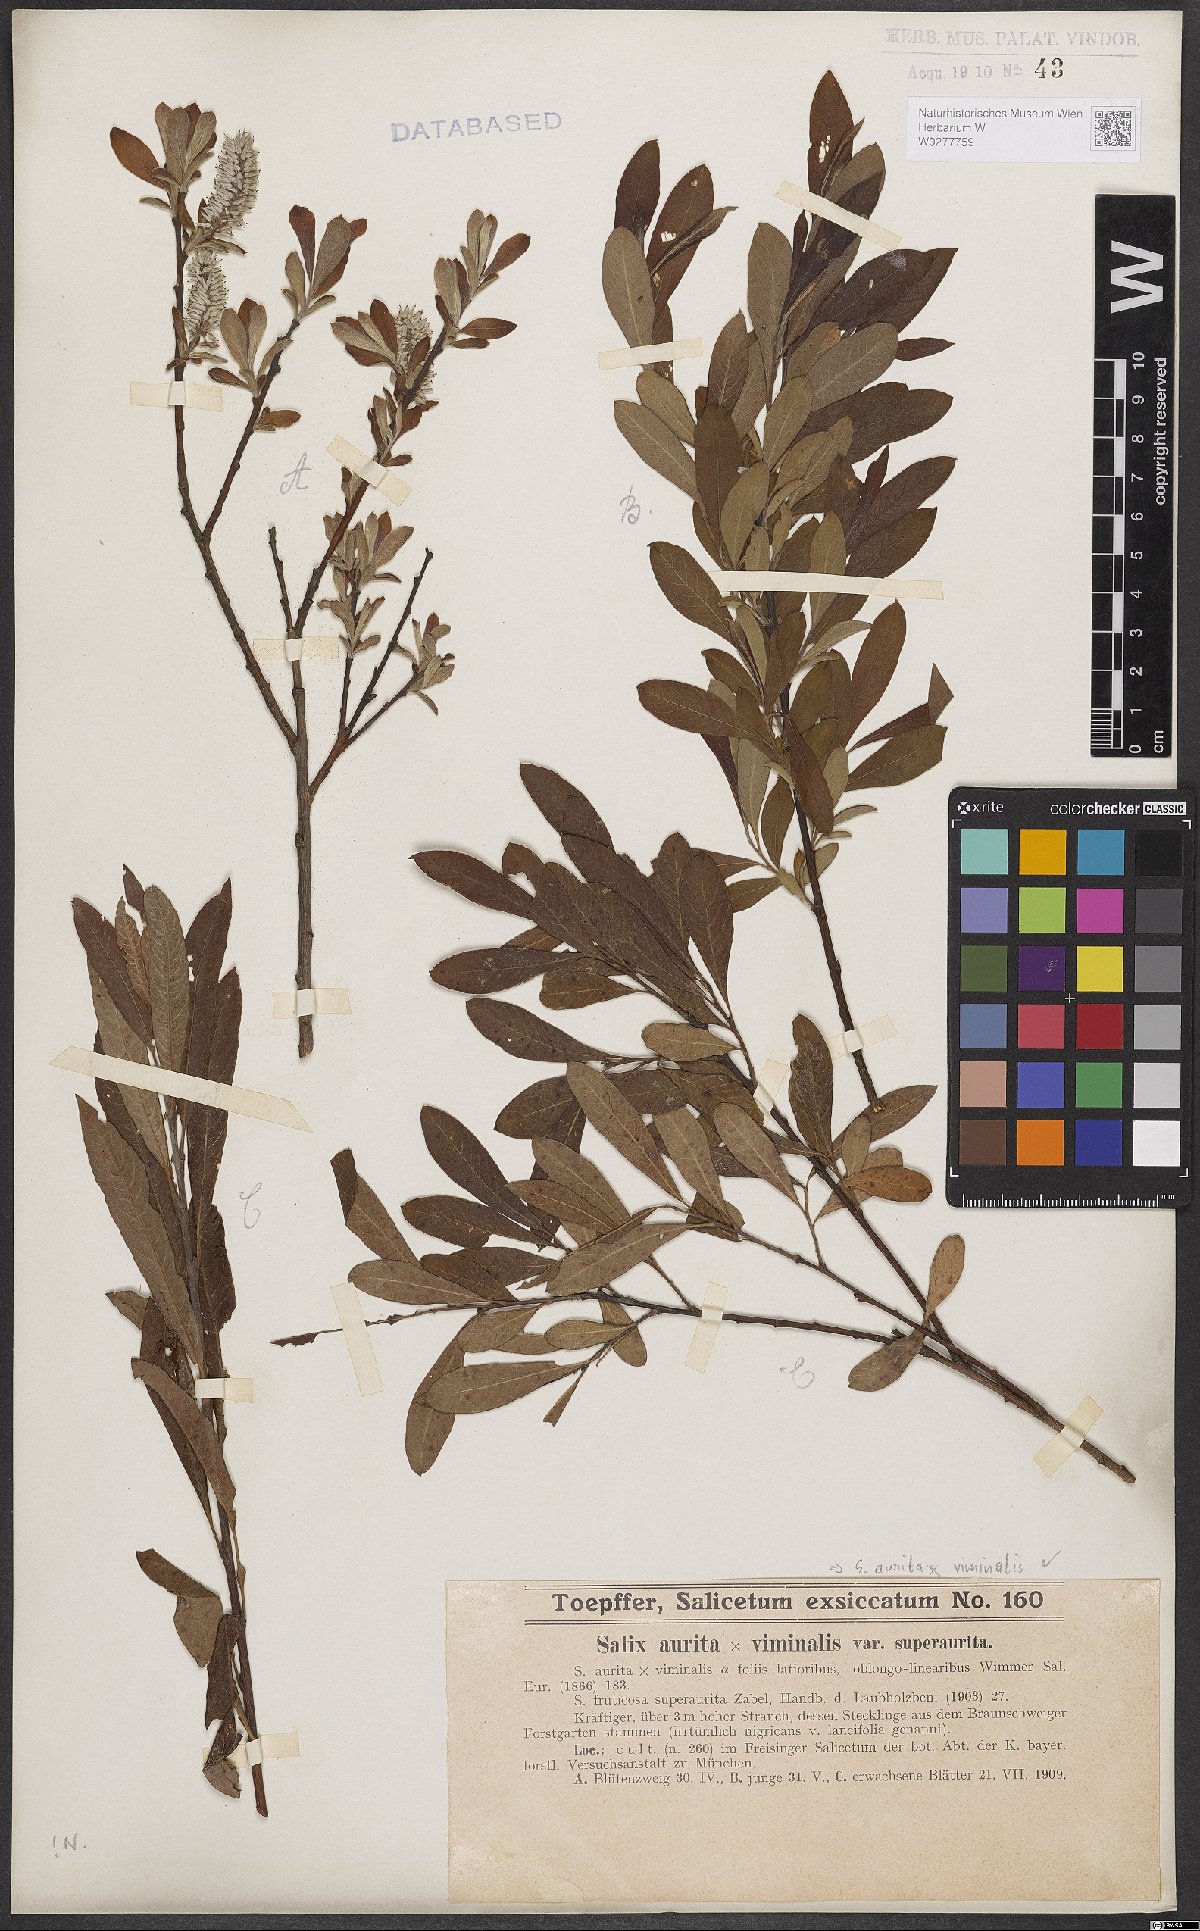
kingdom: Plantae
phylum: Tracheophyta
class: Magnoliopsida
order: Malpighiales
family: Salicaceae
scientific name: Salicaceae
